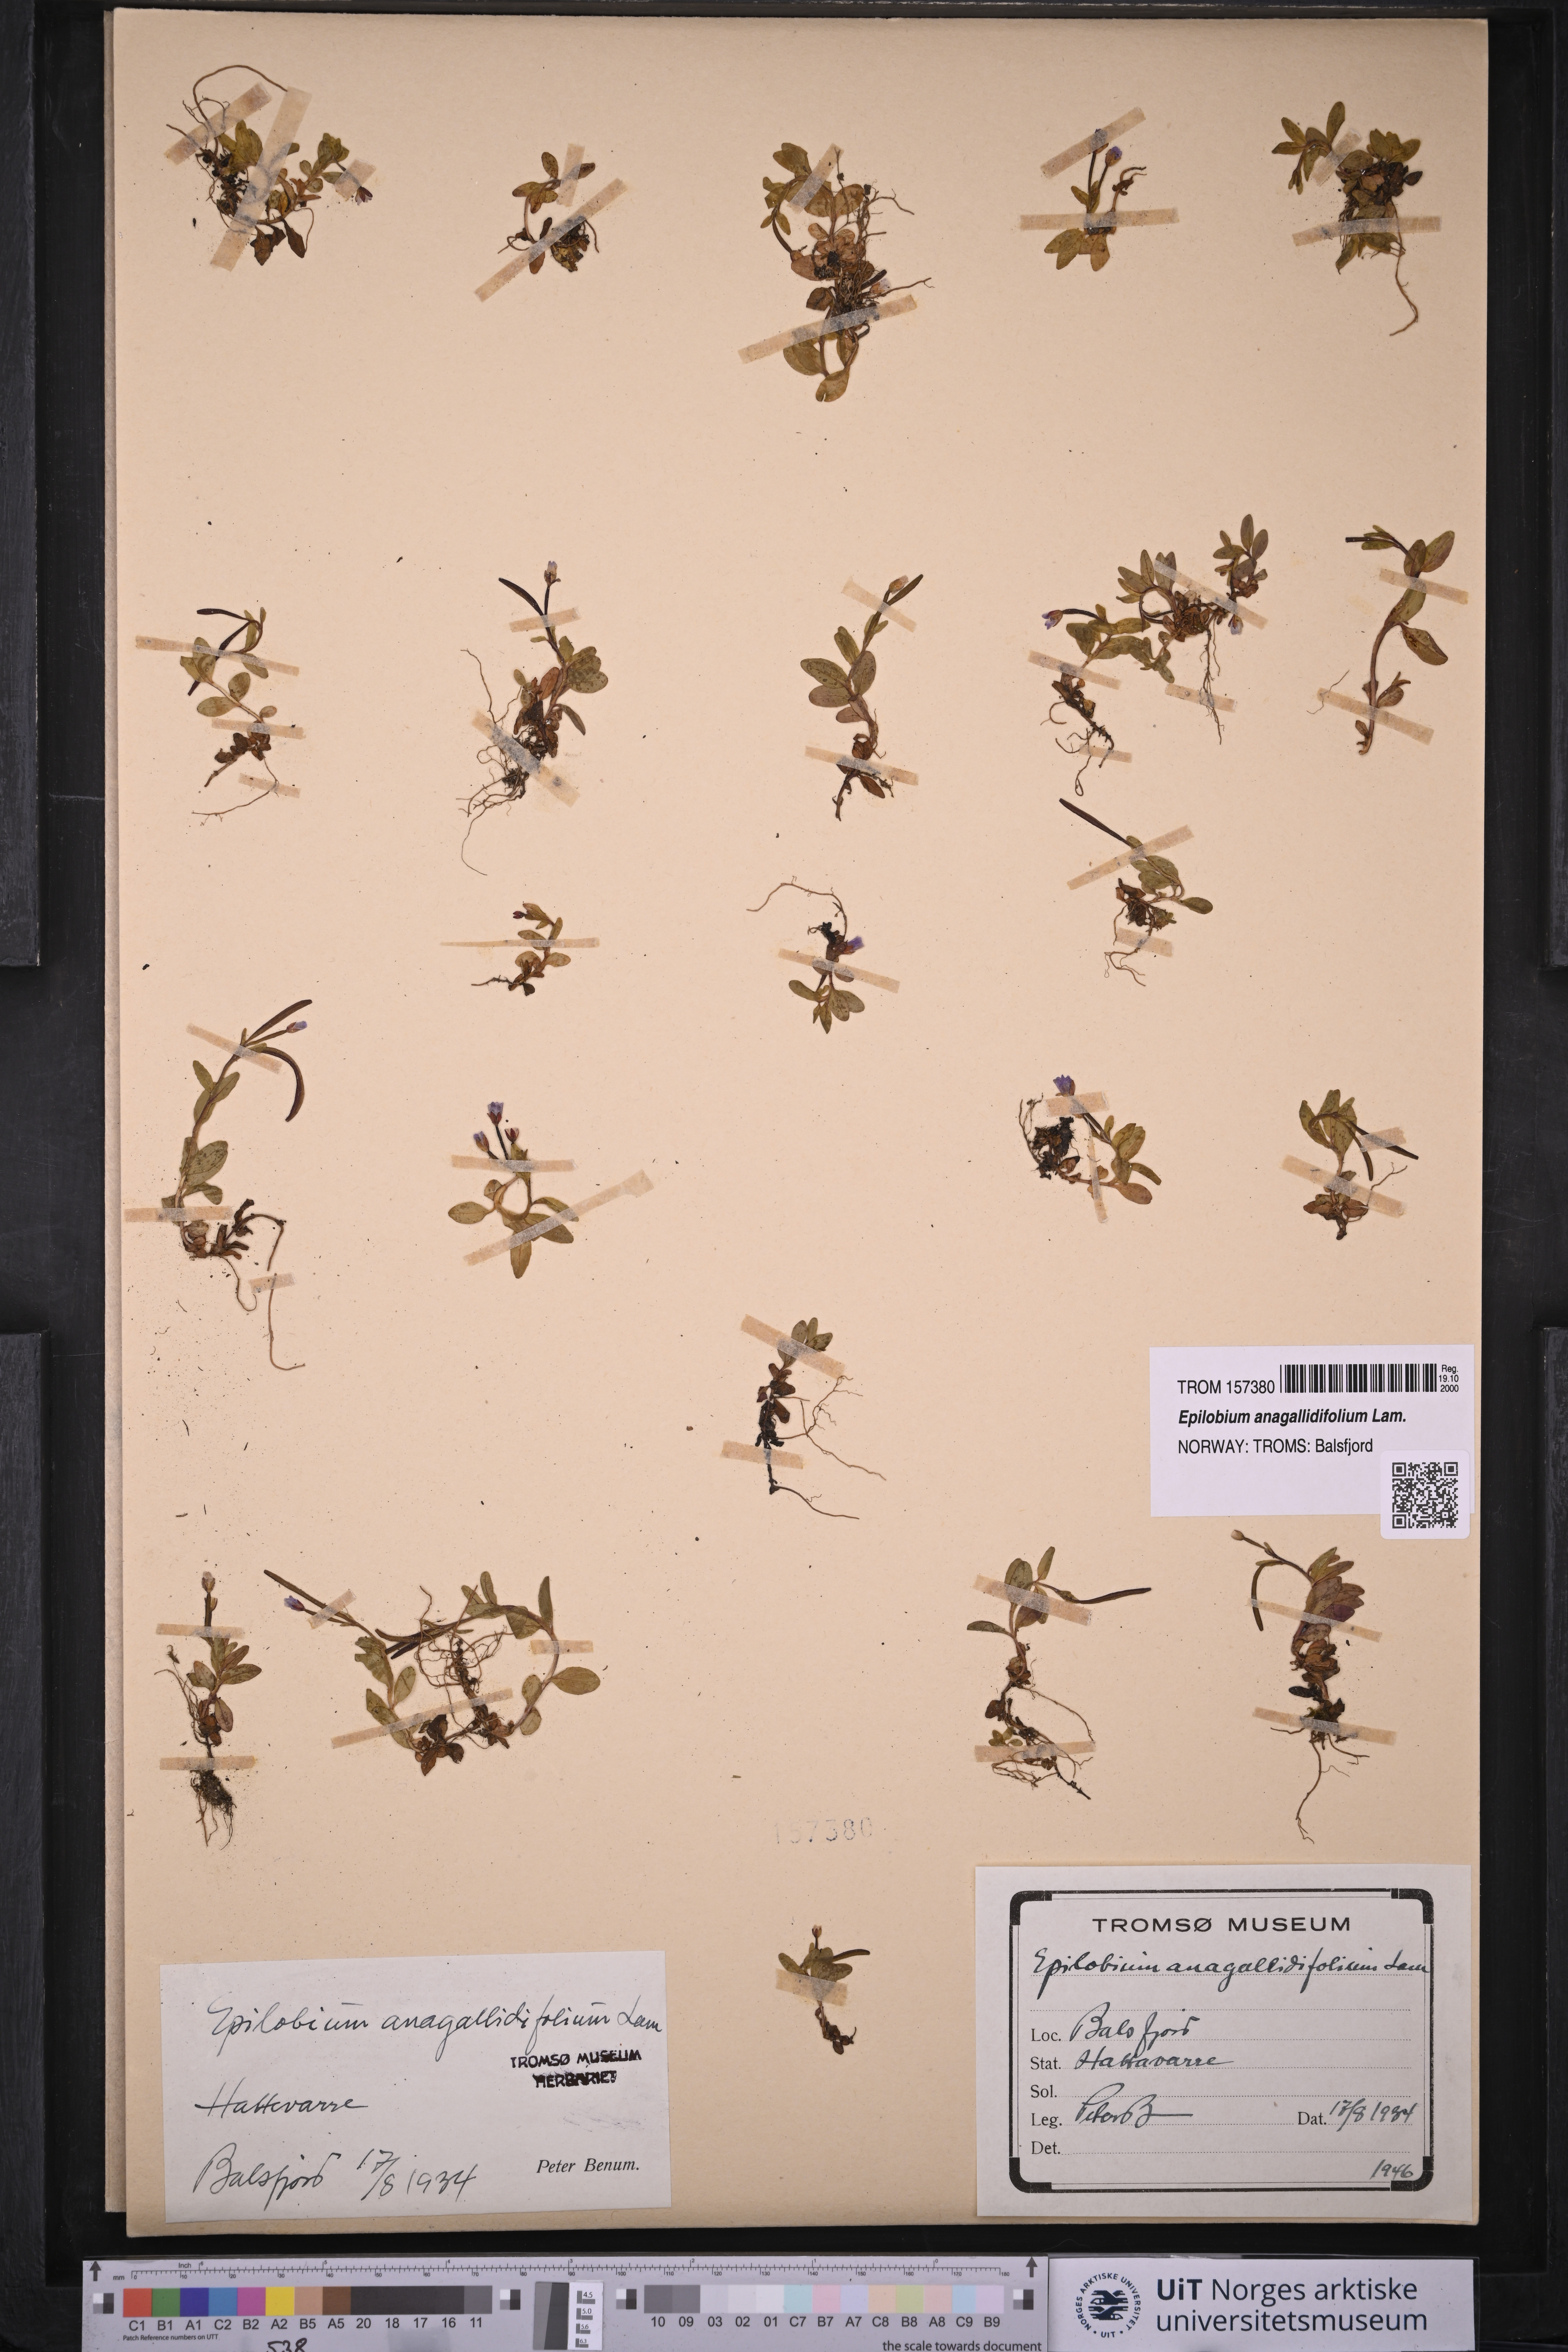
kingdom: Plantae
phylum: Tracheophyta
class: Magnoliopsida
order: Myrtales
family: Onagraceae
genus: Epilobium
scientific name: Epilobium anagallidifolium
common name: Alpine willowherb
